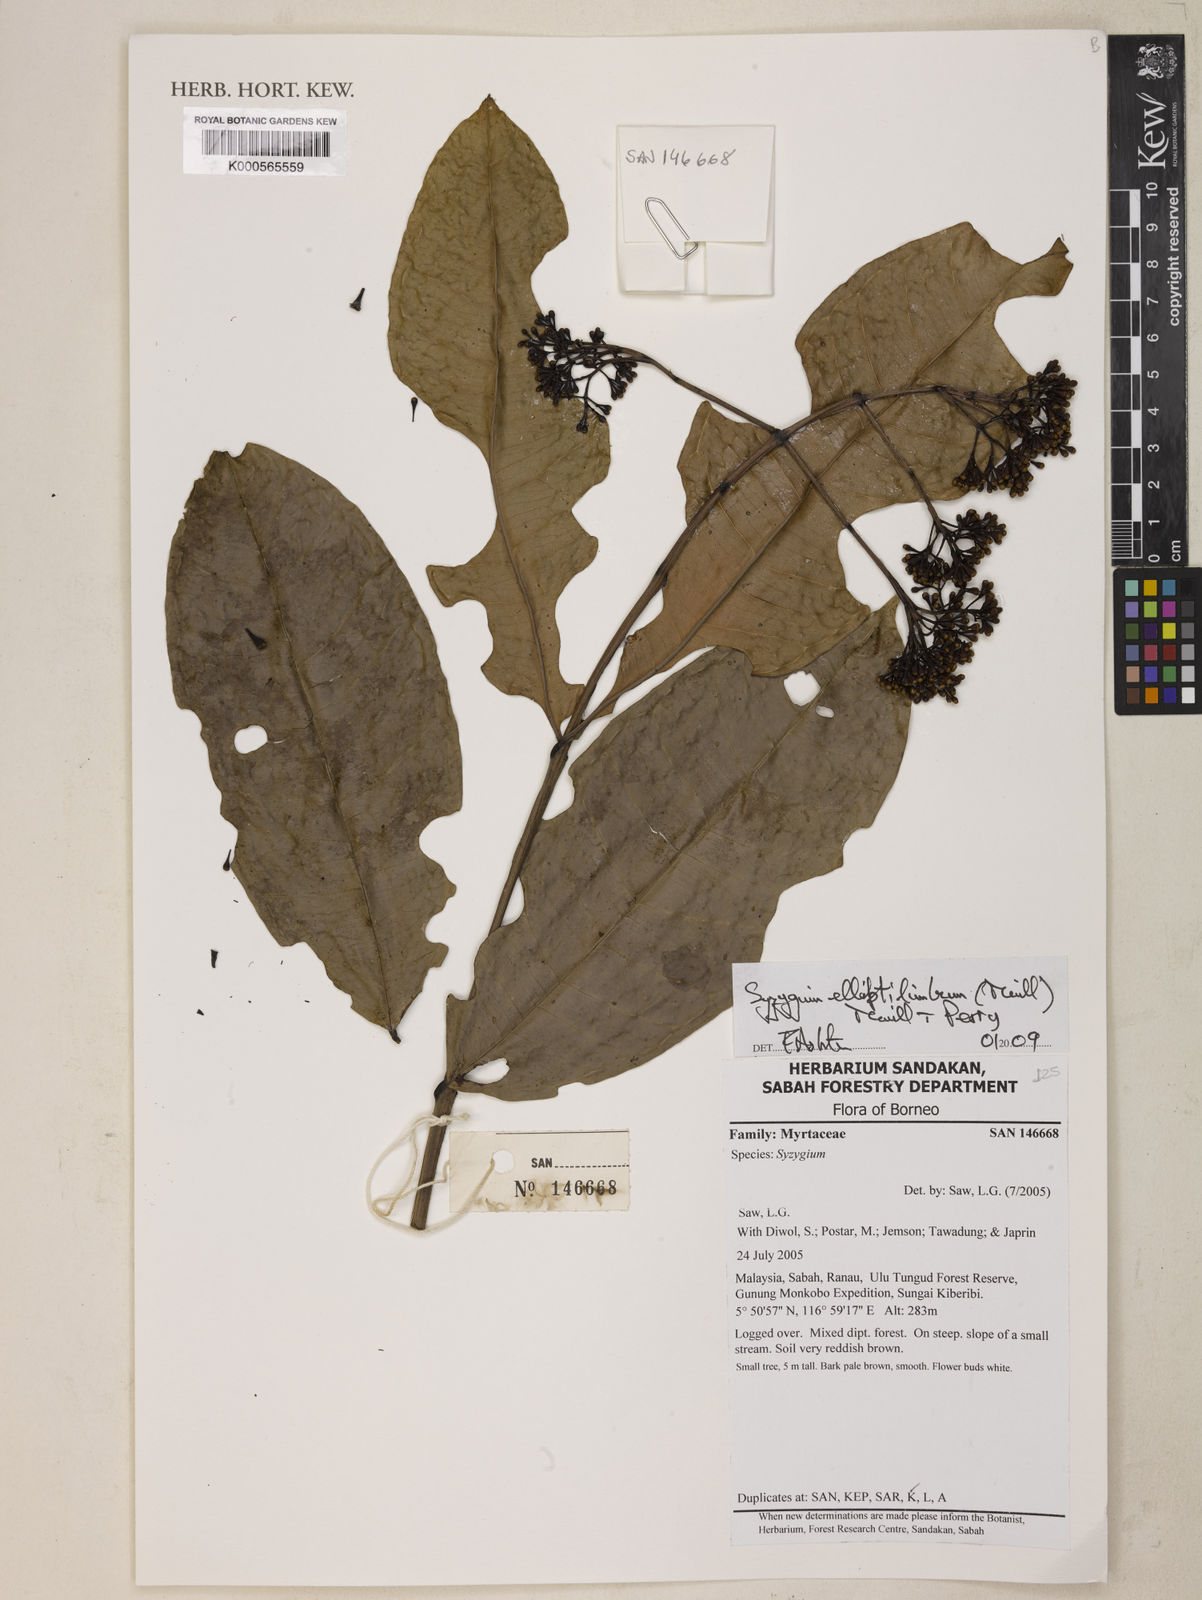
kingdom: Plantae
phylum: Tracheophyta
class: Magnoliopsida
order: Myrtales
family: Myrtaceae
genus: Syzygium
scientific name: Syzygium elliptilimbum
